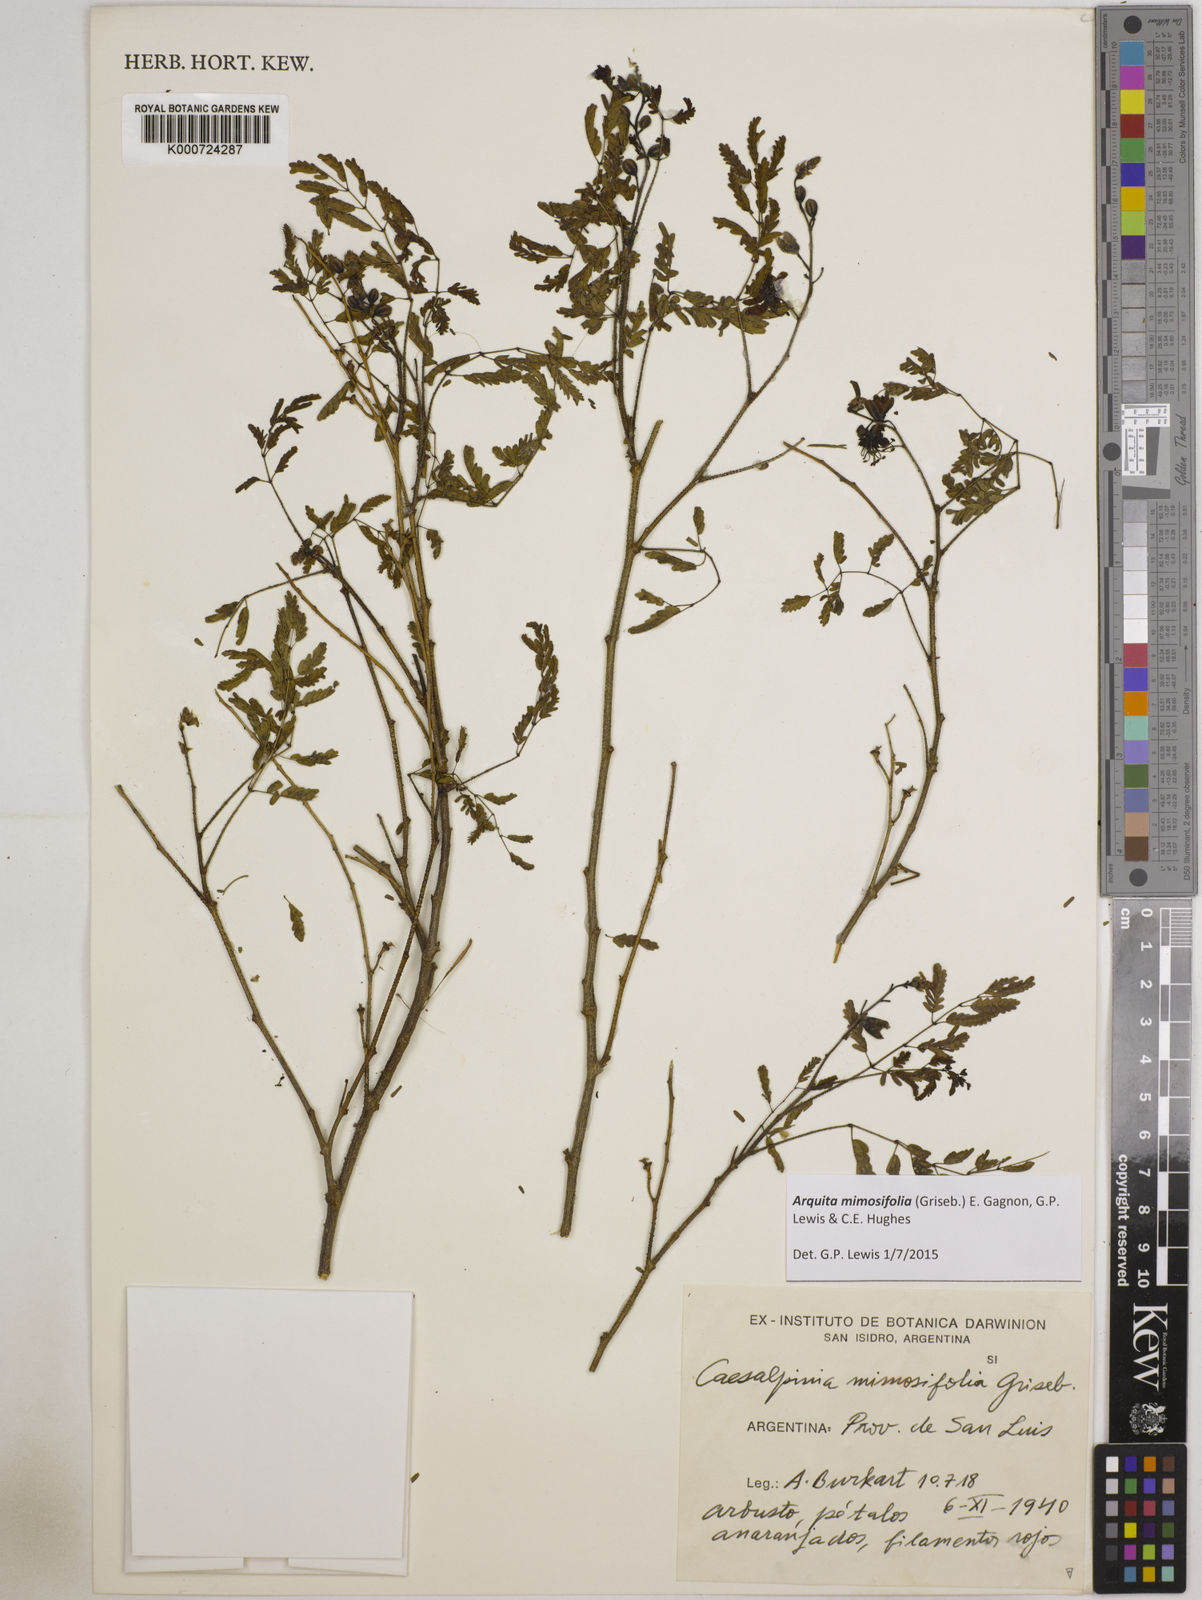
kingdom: Plantae
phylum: Tracheophyta
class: Magnoliopsida
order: Fabales
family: Fabaceae
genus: Arquita
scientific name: Arquita mimosifolia
